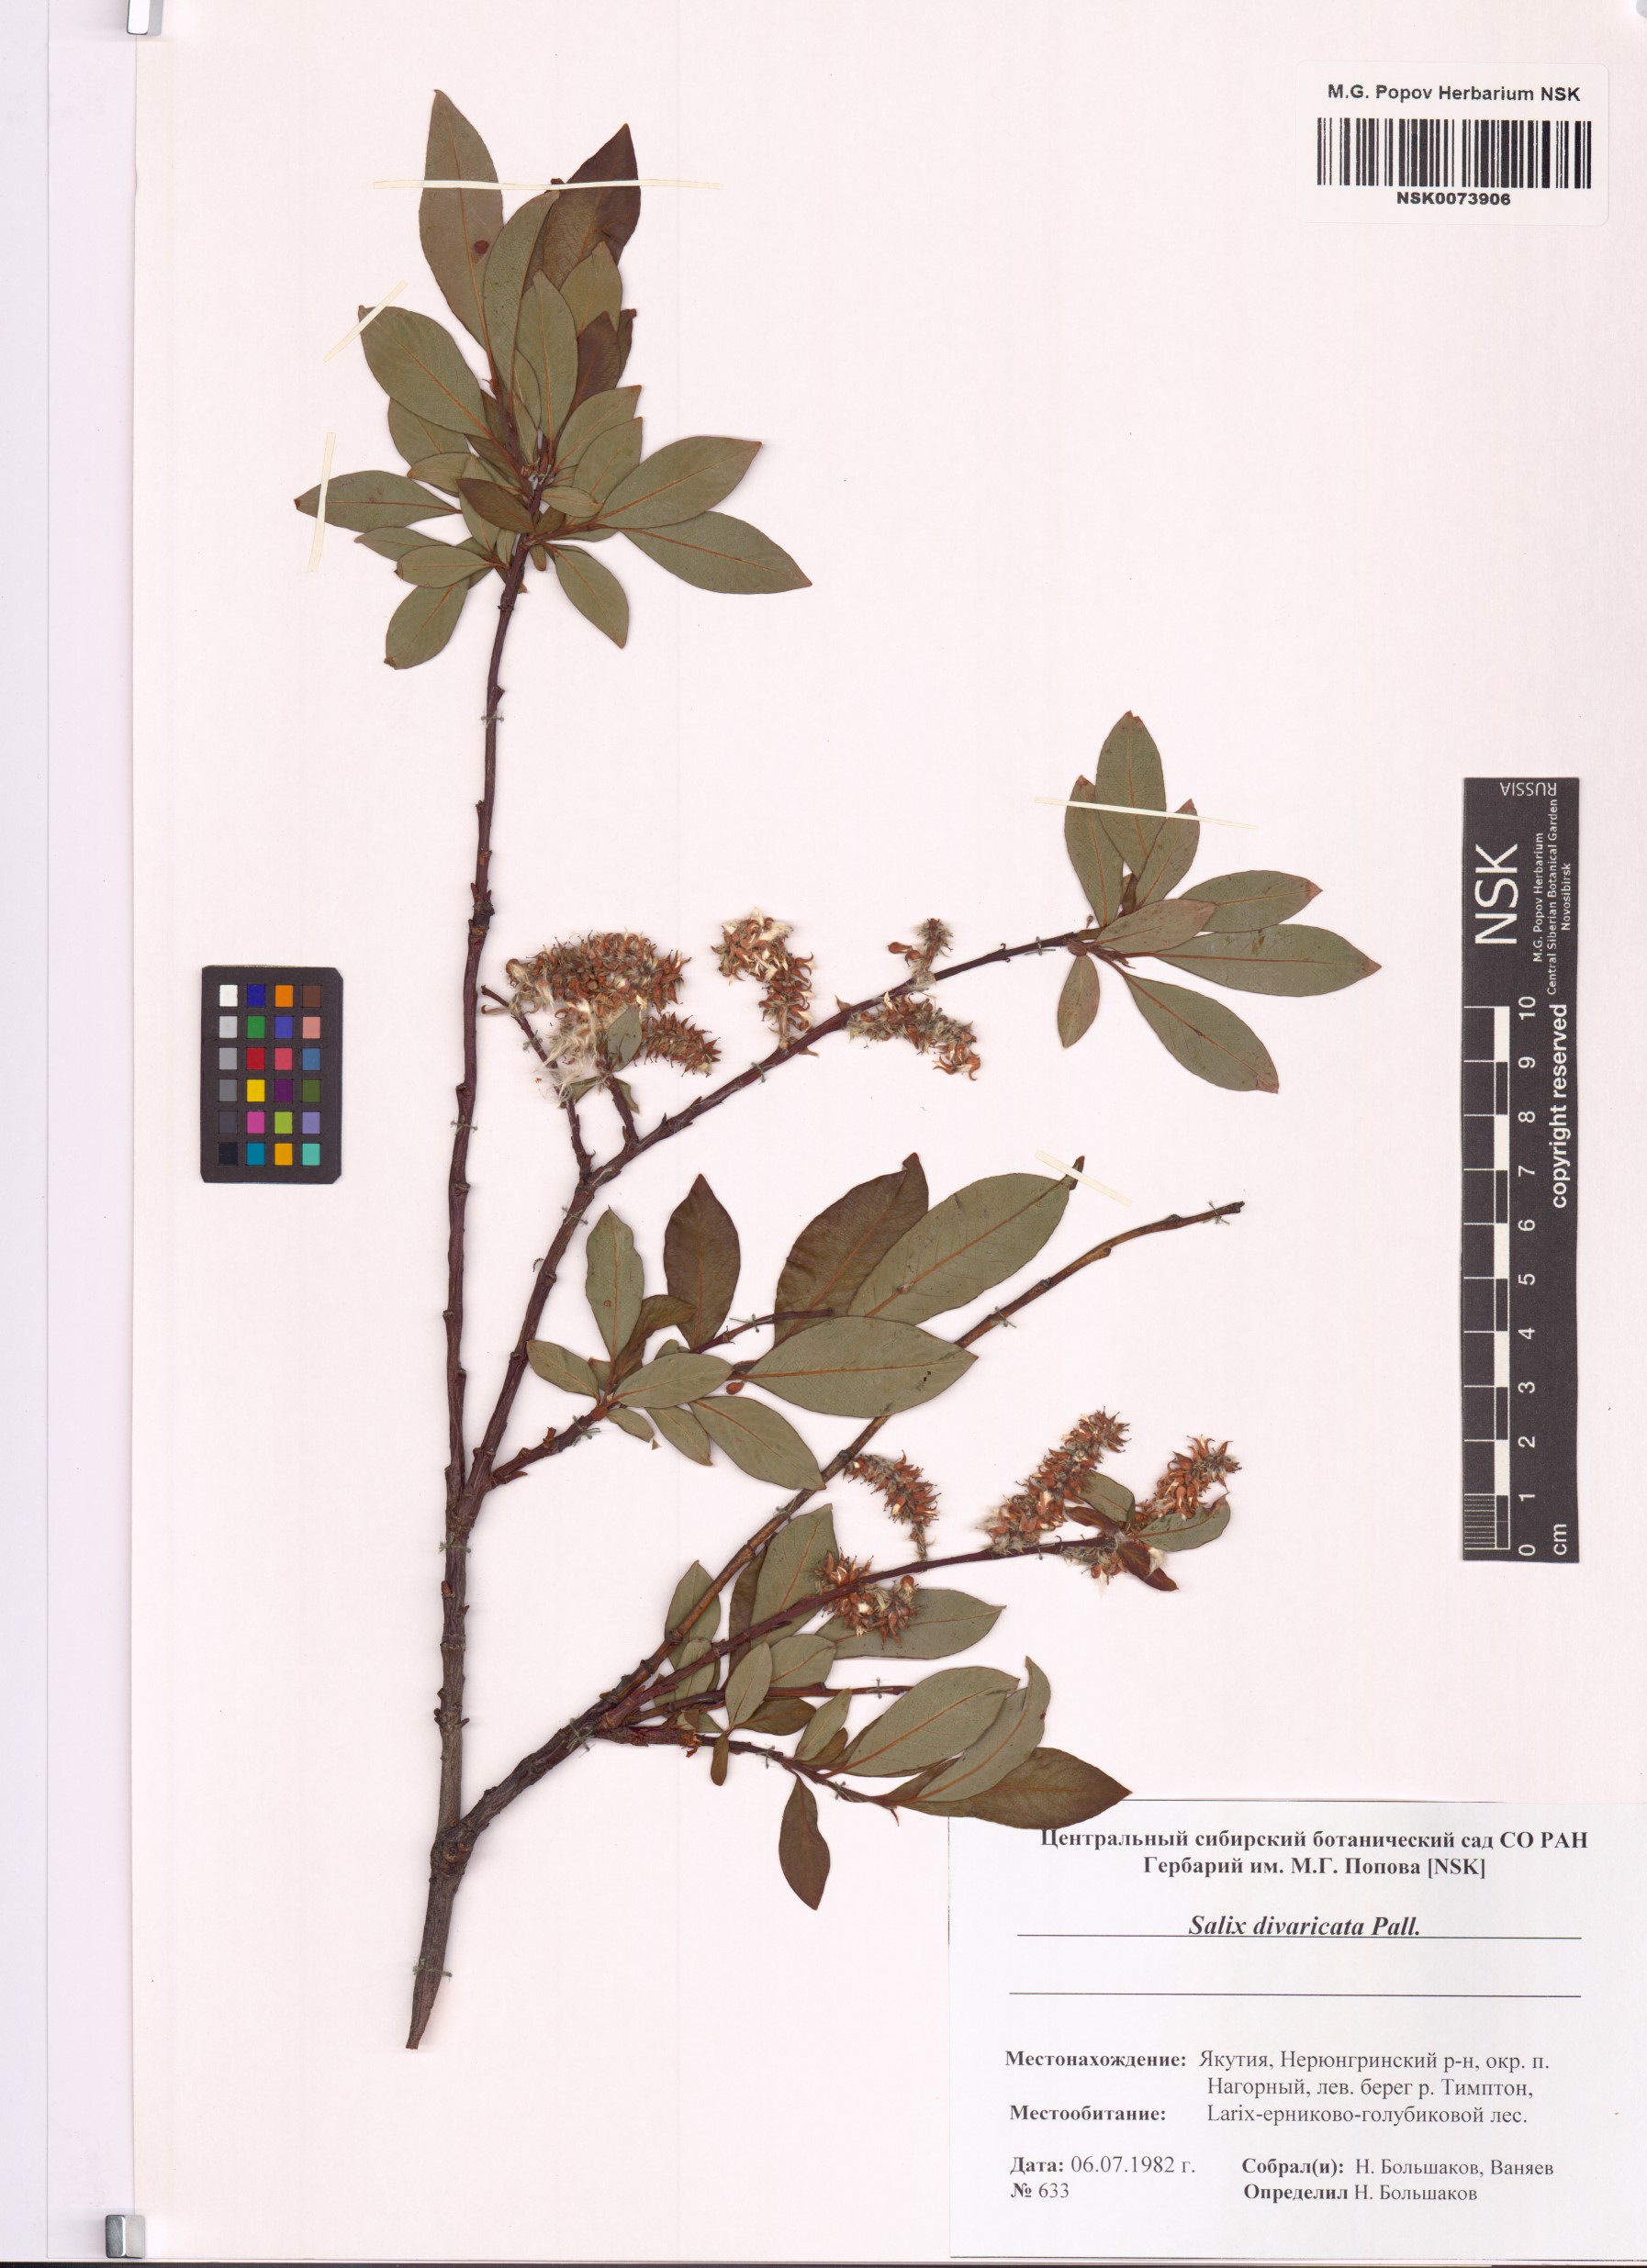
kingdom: Plantae
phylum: Tracheophyta
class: Magnoliopsida
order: Malpighiales
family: Salicaceae
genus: Salix
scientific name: Salix divaricata
